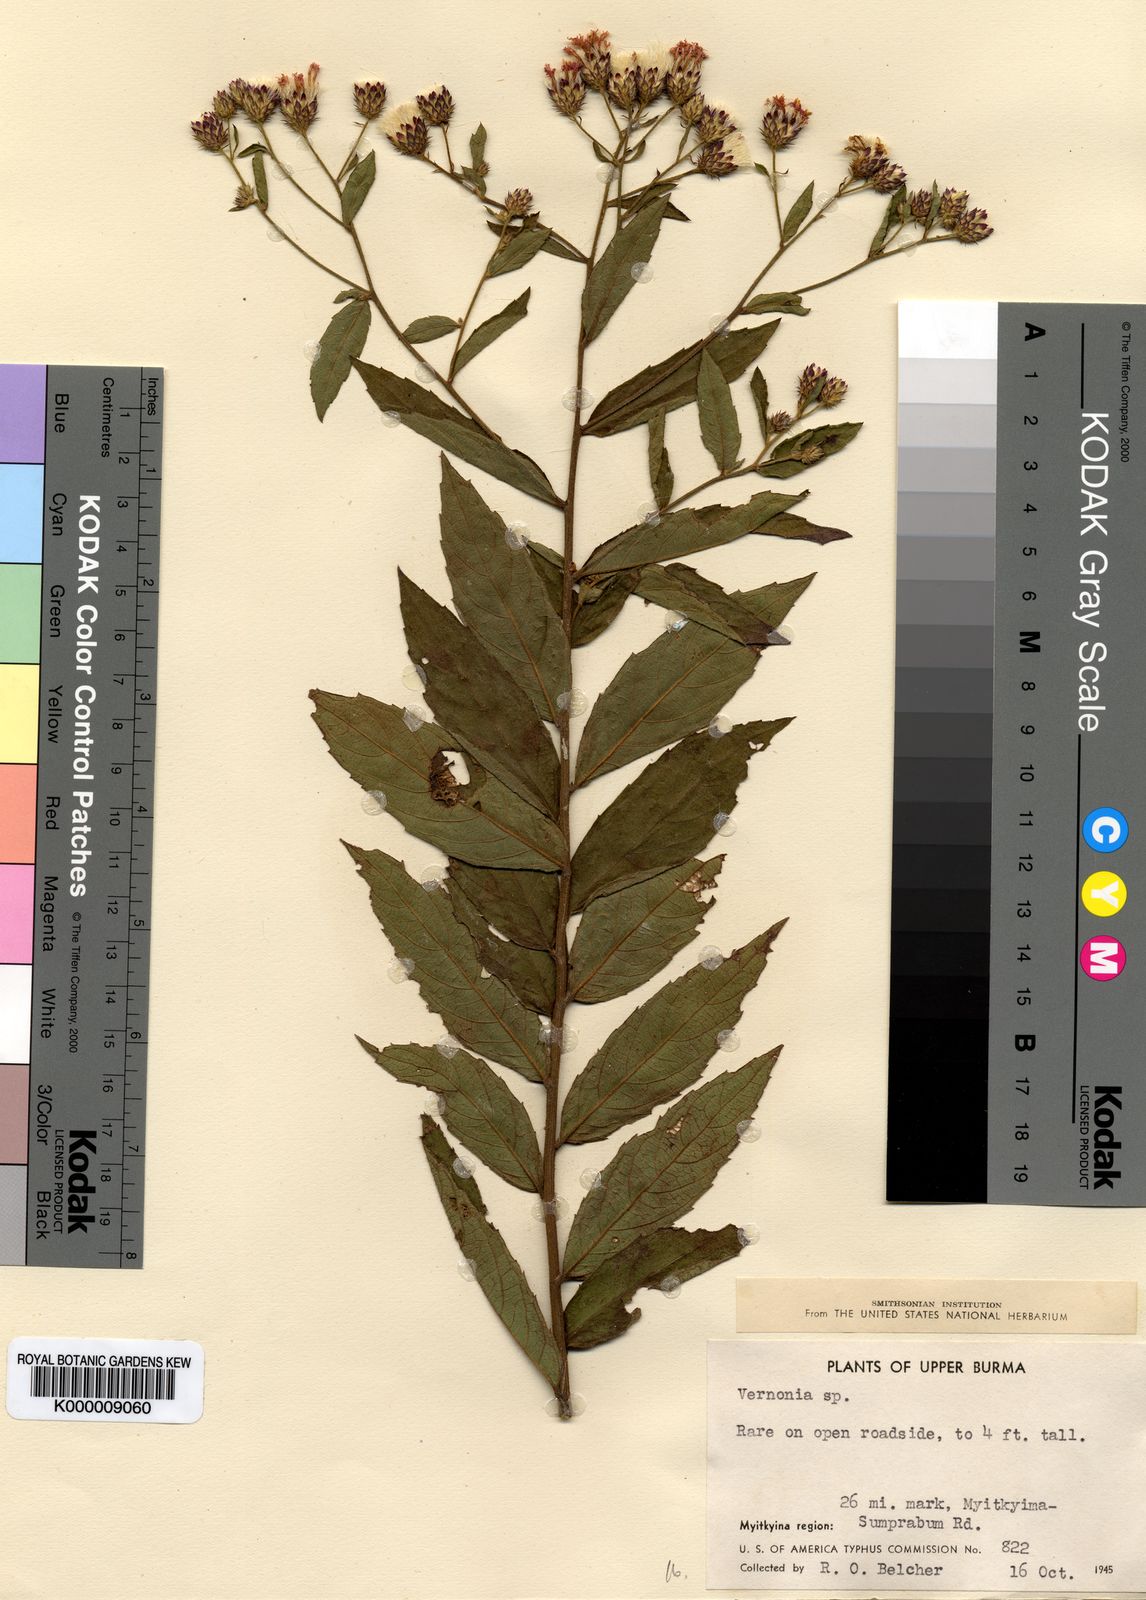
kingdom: Plantae
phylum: Tracheophyta
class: Magnoliopsida
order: Asterales
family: Asteraceae
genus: Vernonia
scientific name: Vernonia
